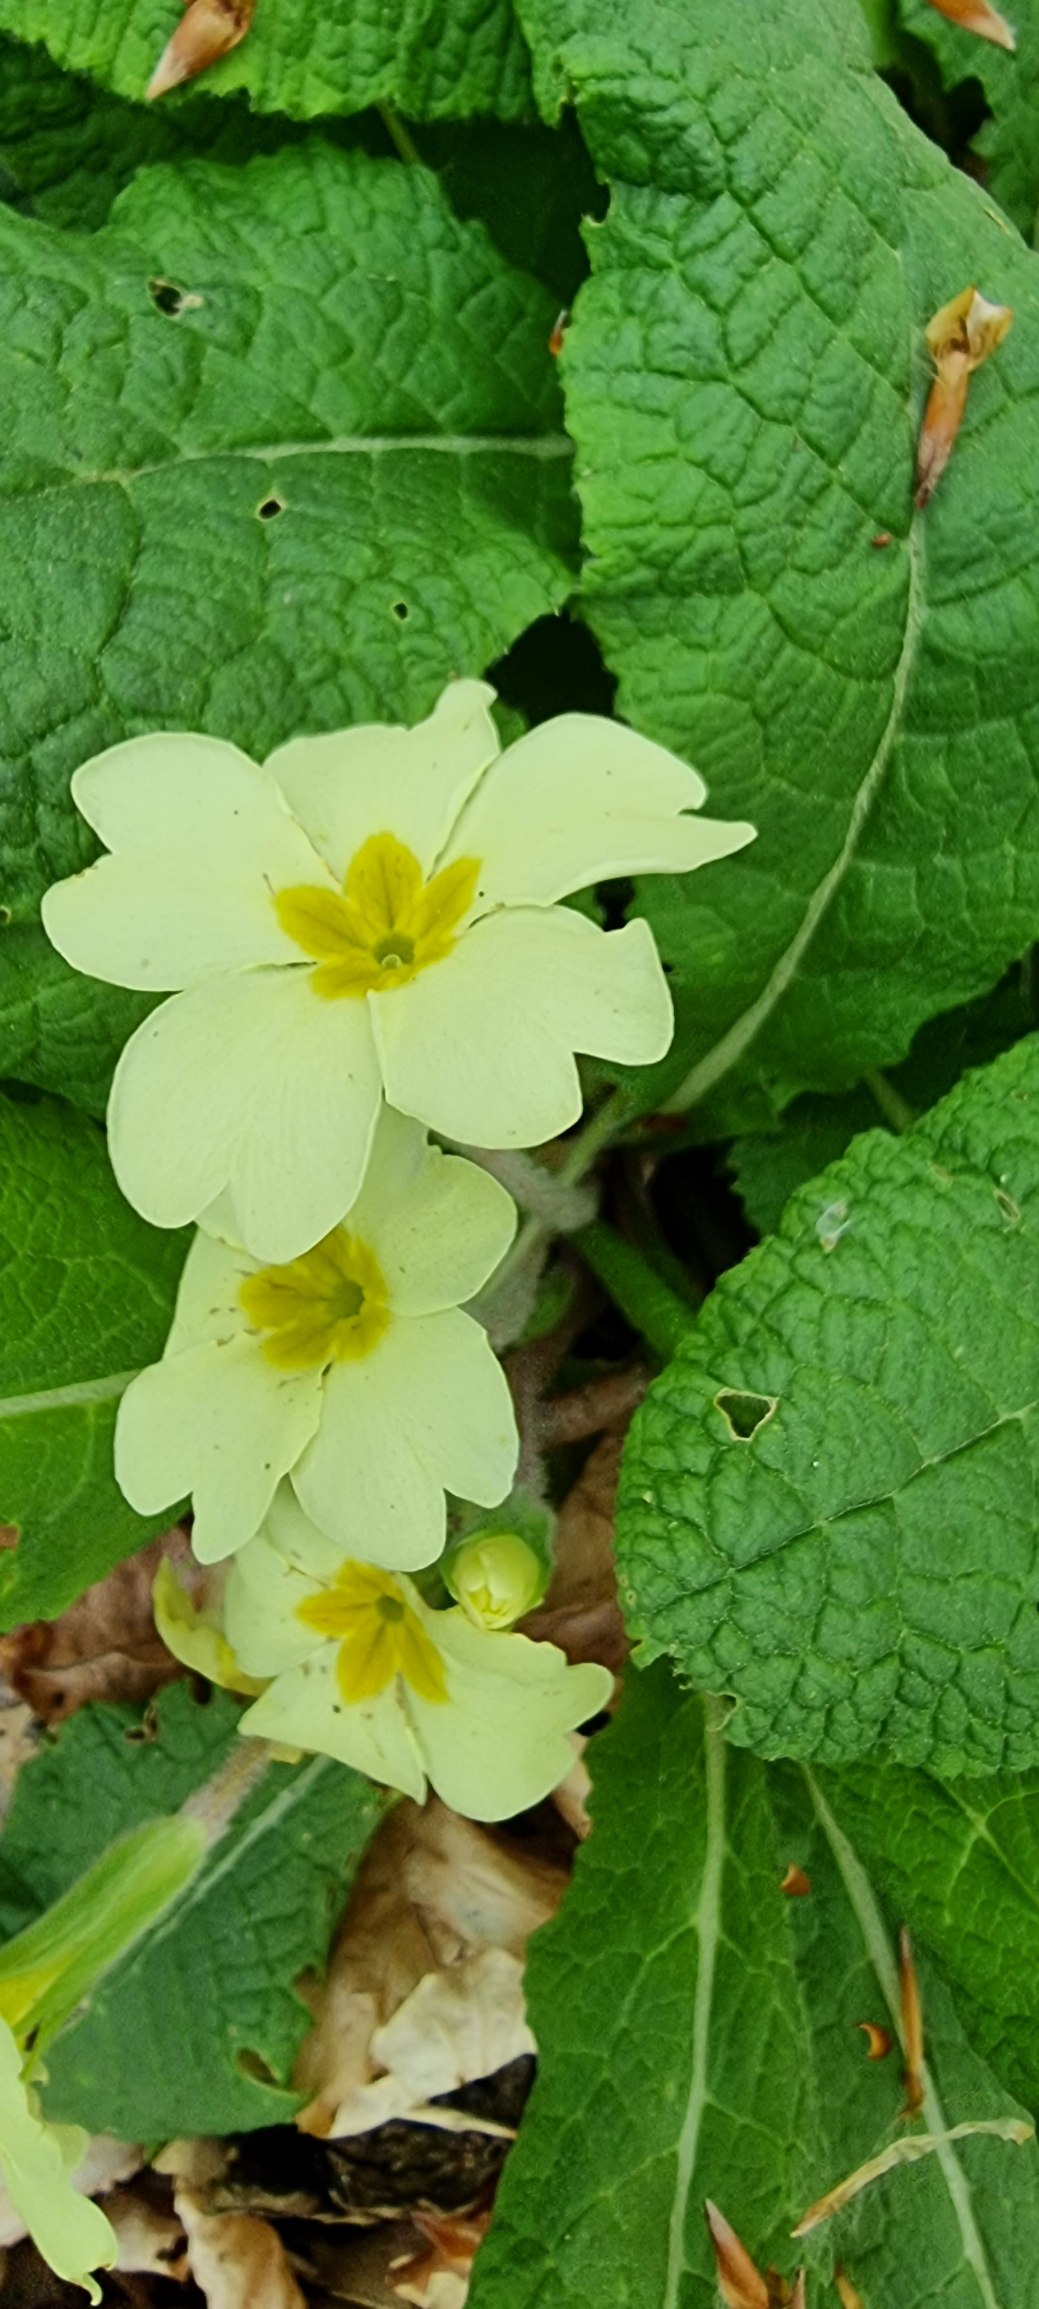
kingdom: Plantae
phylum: Tracheophyta
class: Magnoliopsida
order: Ericales
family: Primulaceae
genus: Primula
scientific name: Primula vulgaris
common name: Storblomstret kodriver
